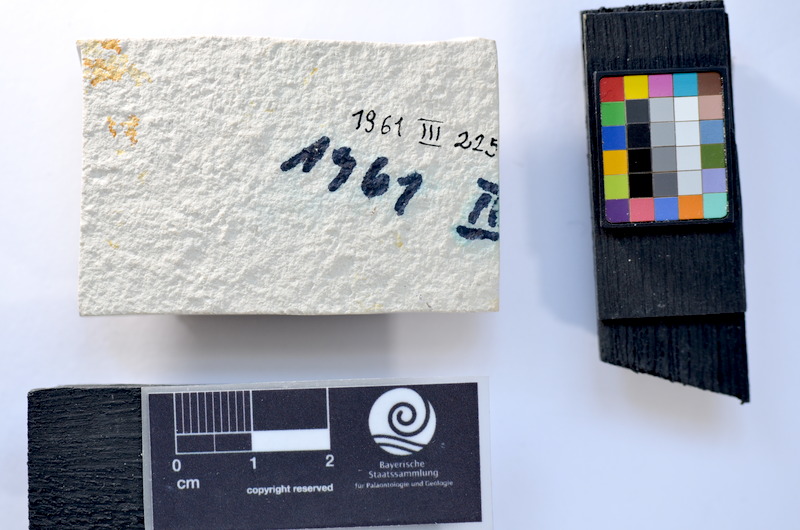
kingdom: Animalia
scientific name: Animalia
